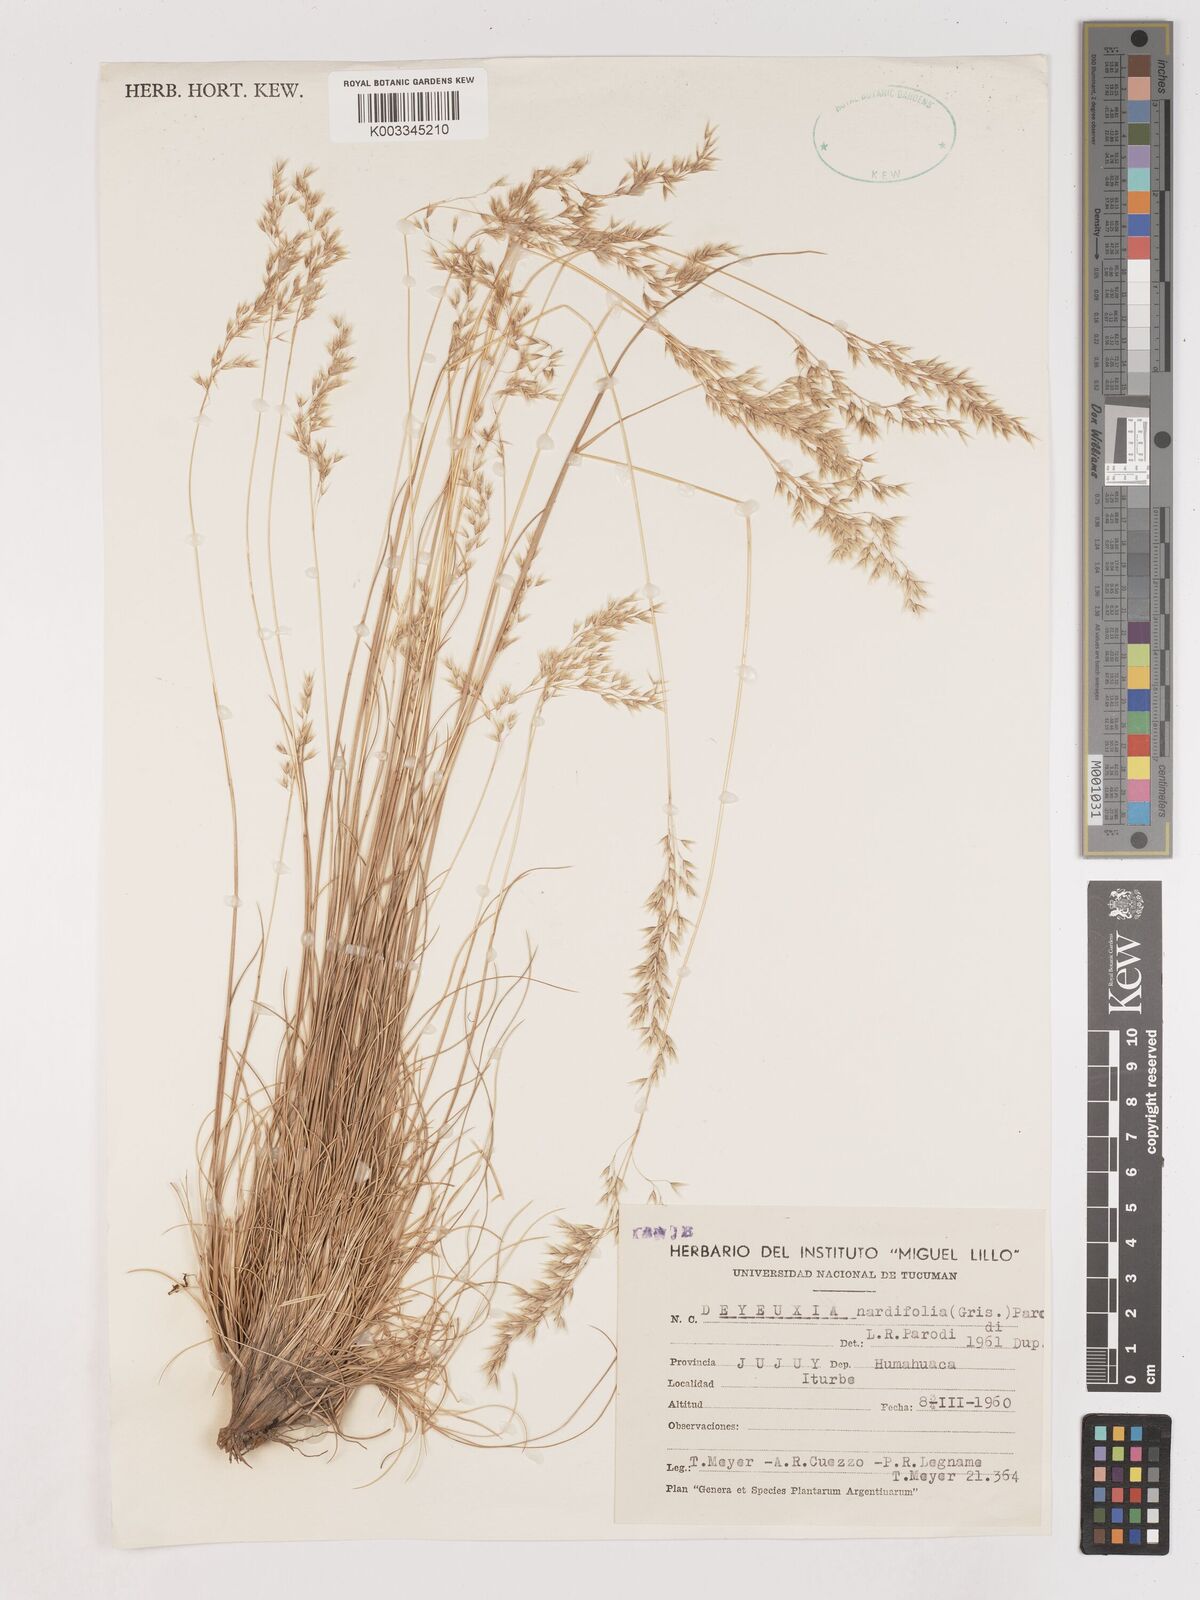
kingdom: Plantae
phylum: Tracheophyta
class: Liliopsida
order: Poales
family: Poaceae
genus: Cinnagrostis
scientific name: Cinnagrostis velutina
